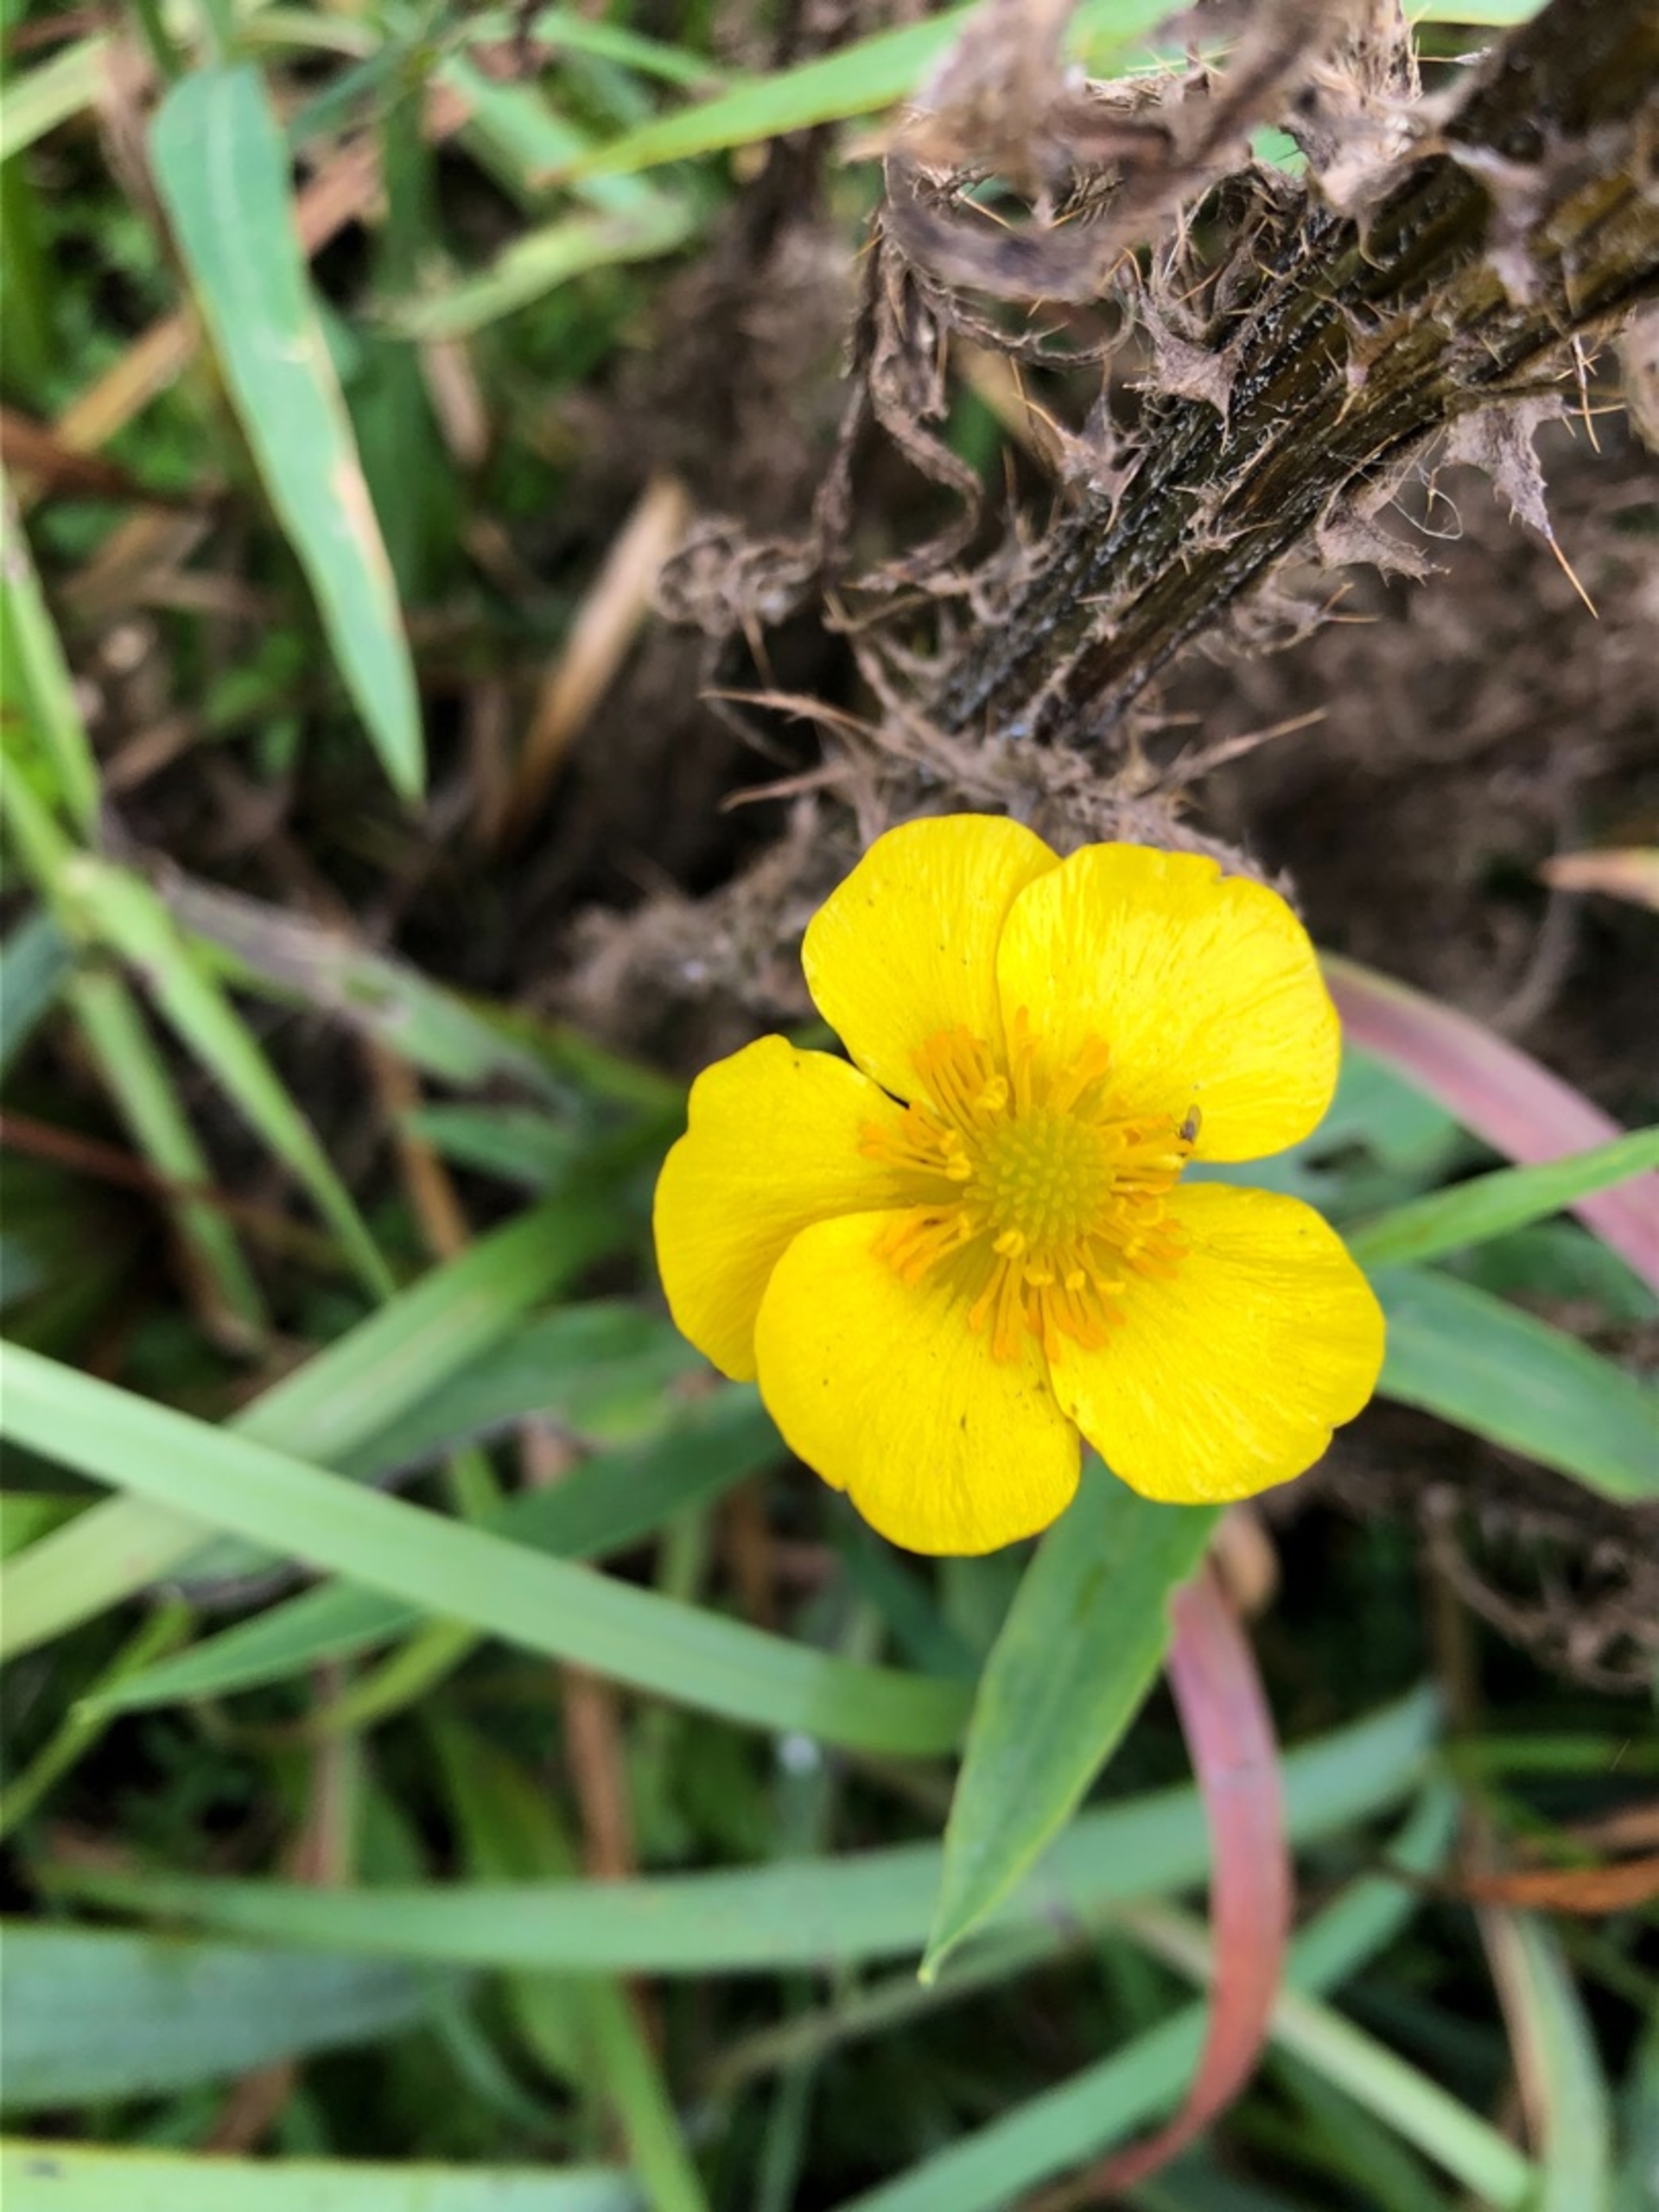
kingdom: Plantae
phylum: Tracheophyta
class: Magnoliopsida
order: Ranunculales
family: Ranunculaceae
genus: Ranunculus
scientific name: Ranunculus lingua
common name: Langbladet ranunkel
